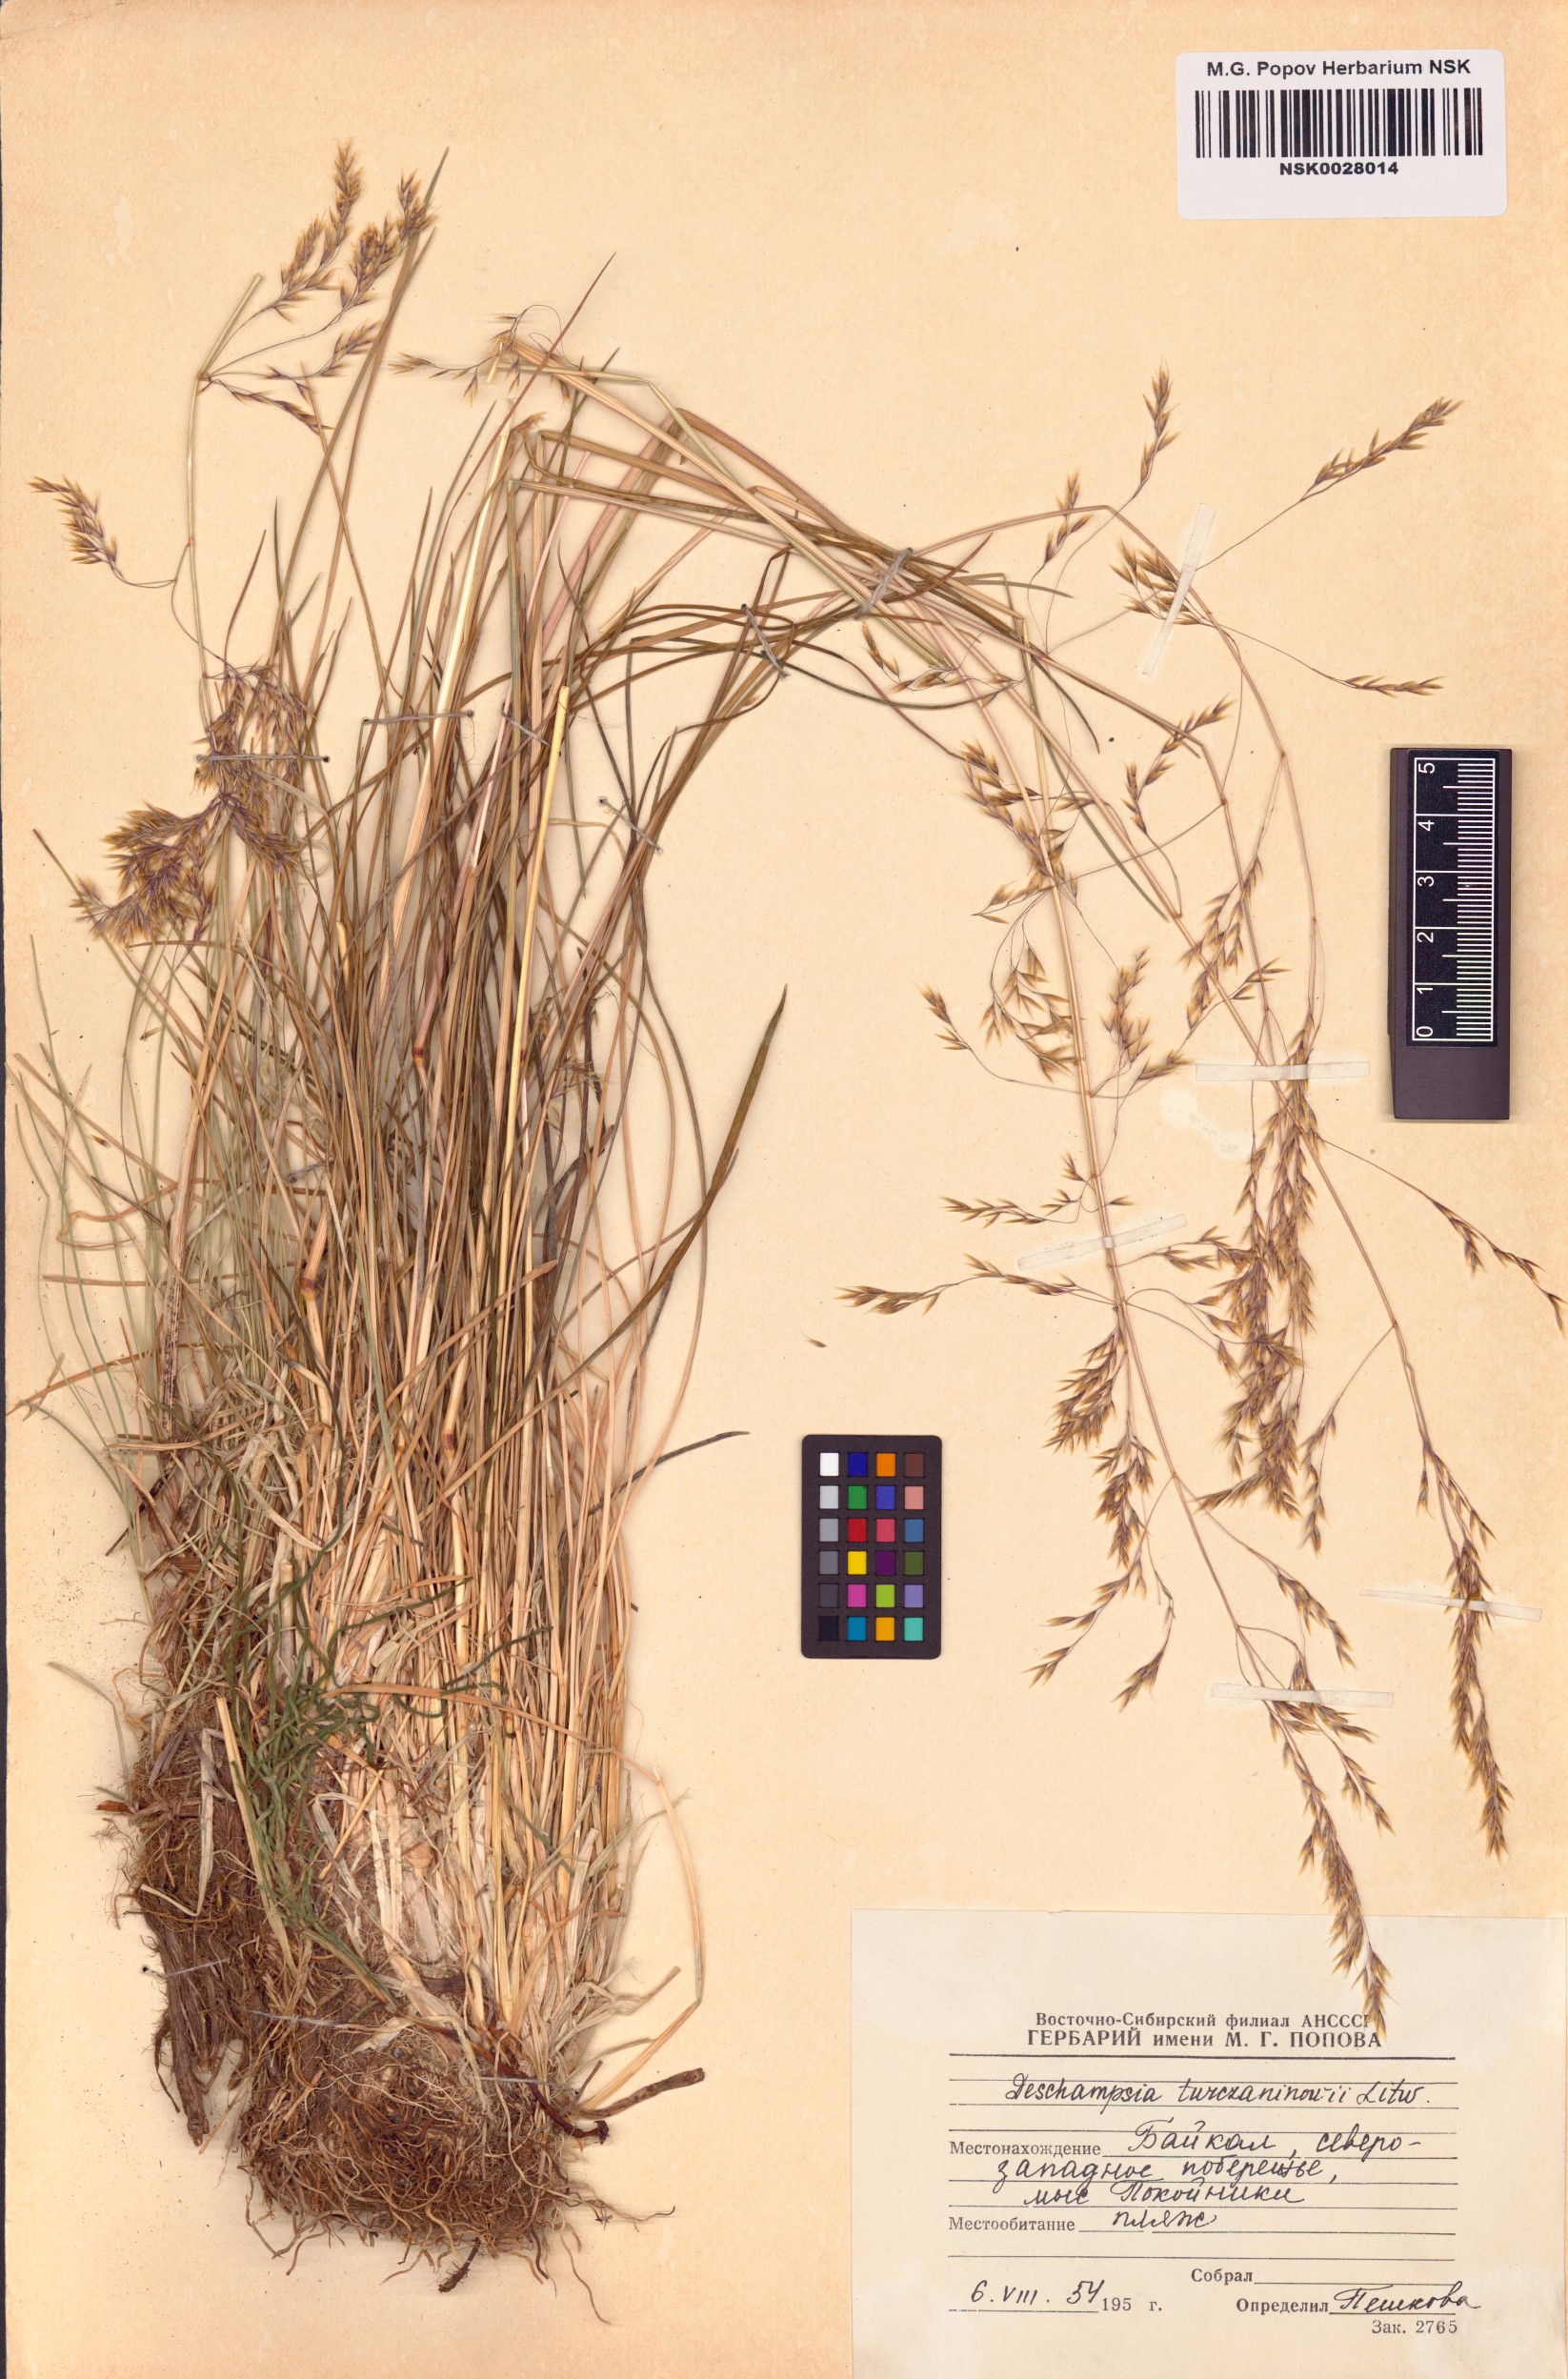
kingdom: Plantae
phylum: Tracheophyta
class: Liliopsida
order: Poales
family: Poaceae
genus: Deschampsia
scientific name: Deschampsia cespitosa
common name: Tufted hair-grass
